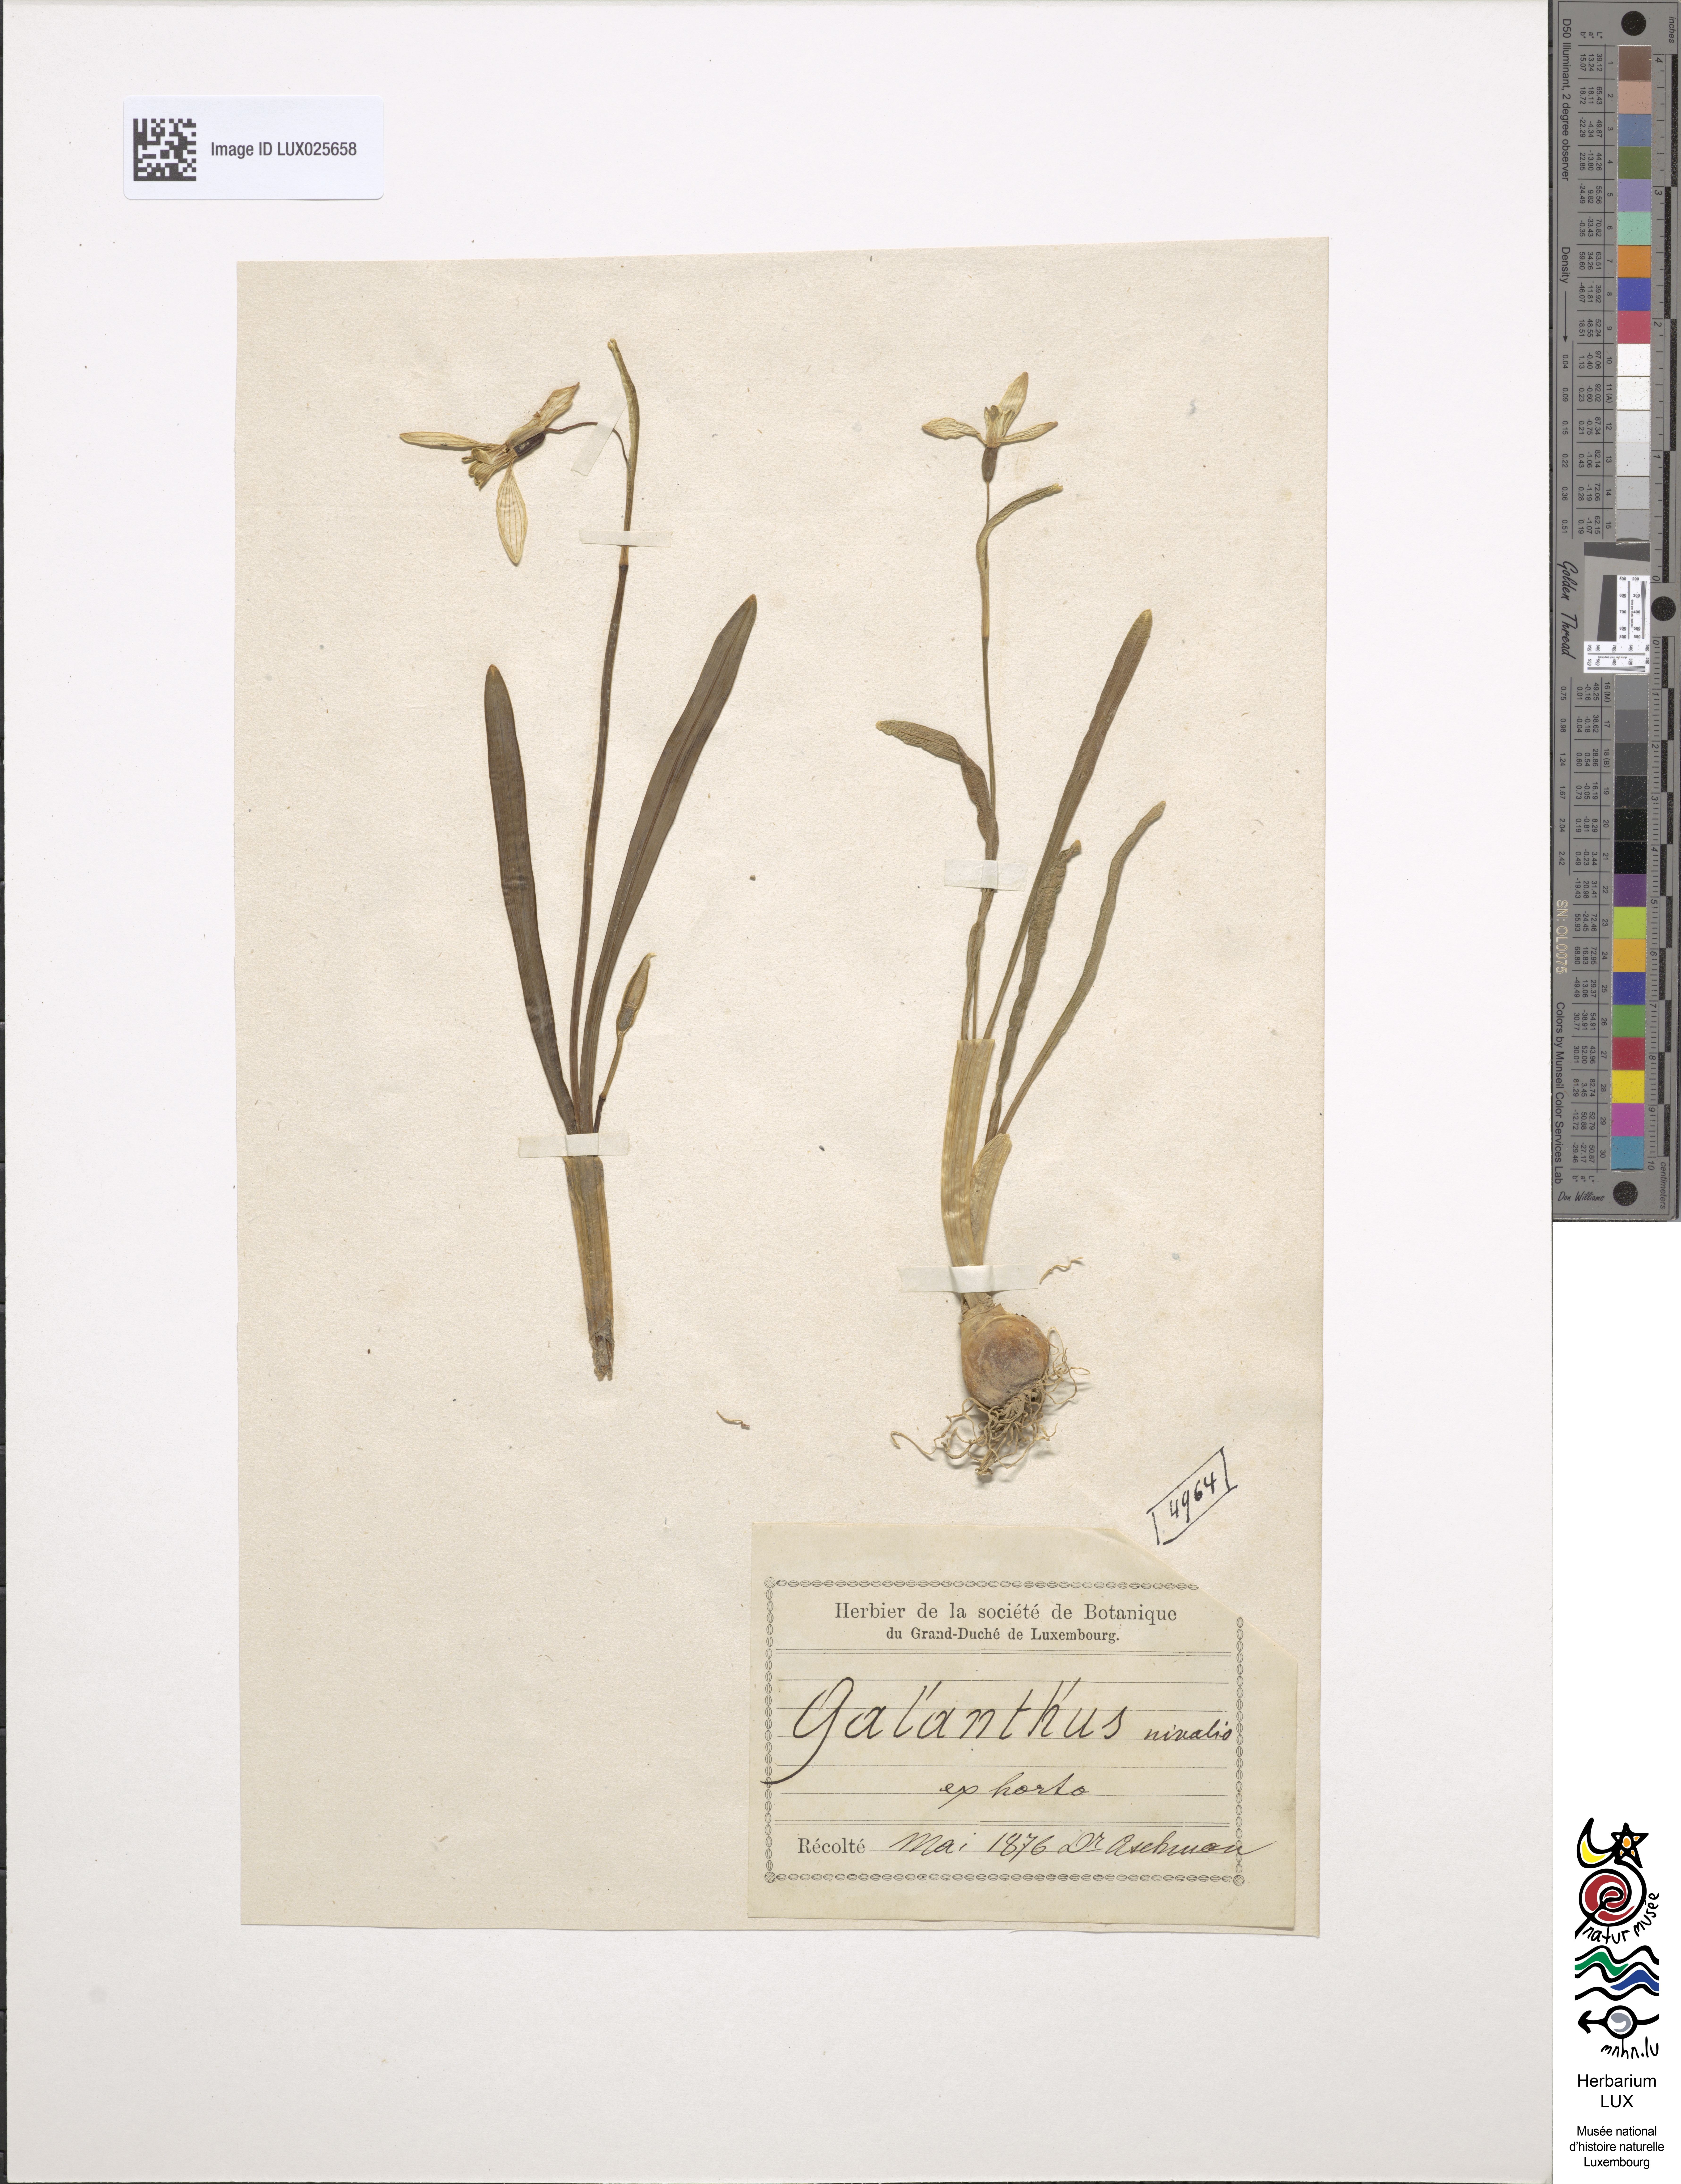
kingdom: Plantae
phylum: Tracheophyta
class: Liliopsida
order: Asparagales
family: Amaryllidaceae
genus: Galanthus
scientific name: Galanthus nivalis
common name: Snowdrop
